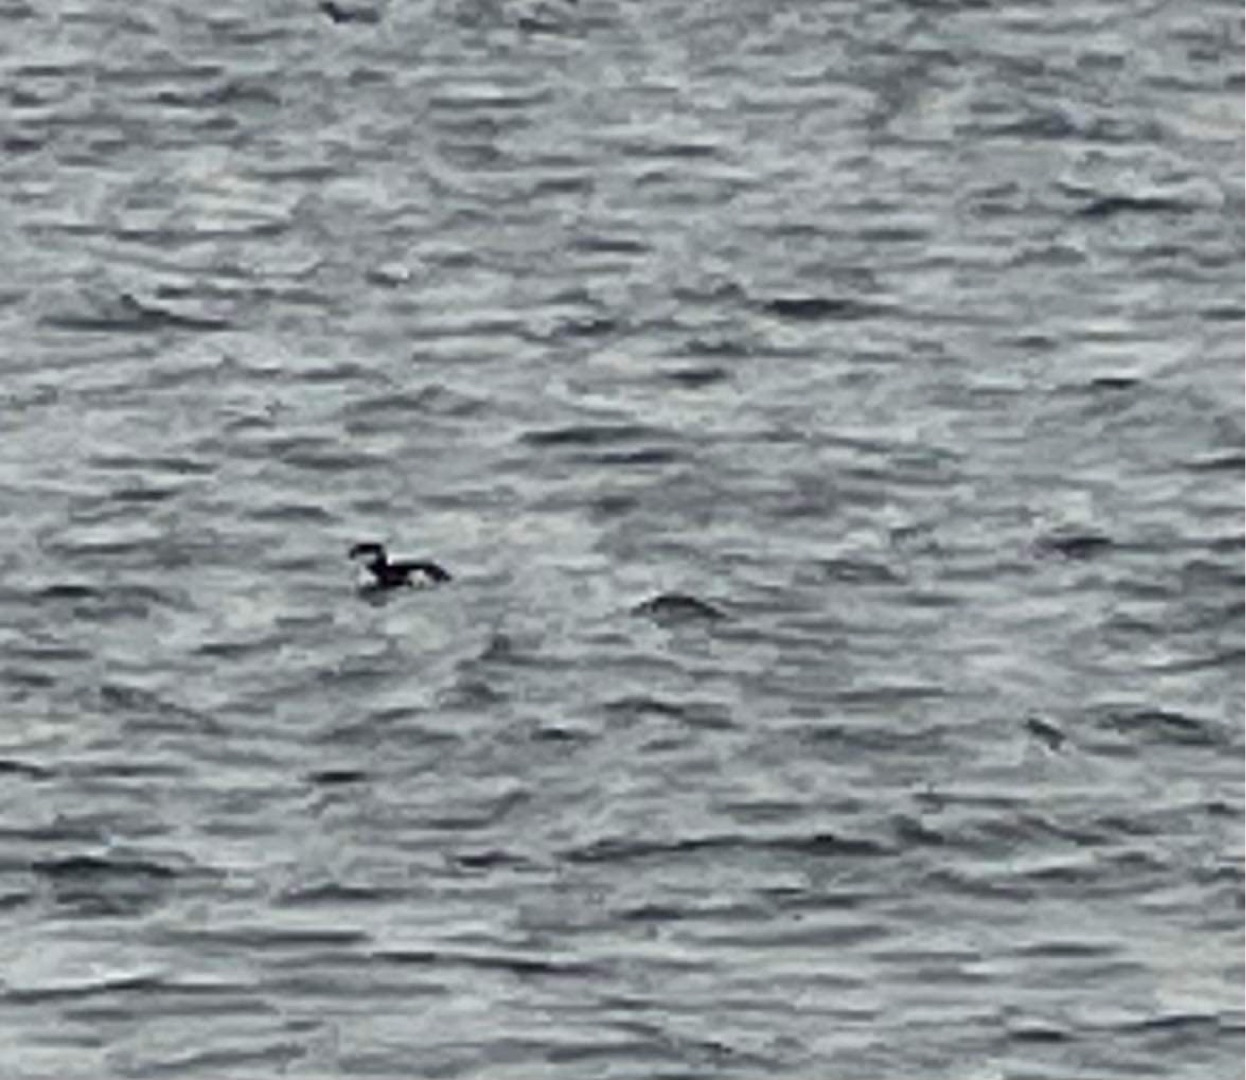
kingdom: Animalia
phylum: Chordata
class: Aves
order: Charadriiformes
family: Alcidae
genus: Alca
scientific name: Alca torda
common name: Alk
